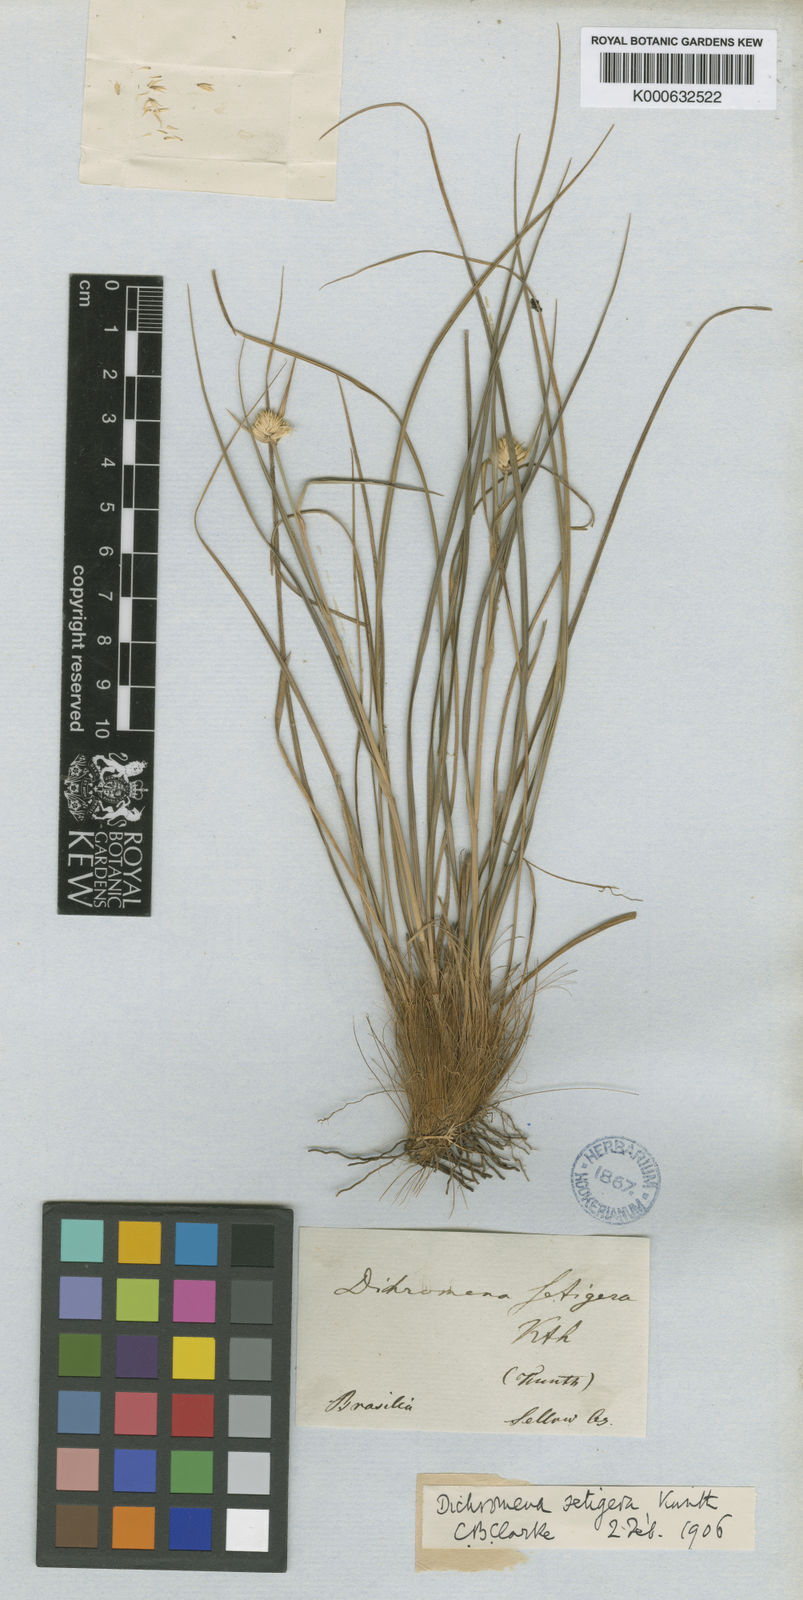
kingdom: Plantae
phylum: Tracheophyta
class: Liliopsida
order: Poales
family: Cyperaceae
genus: Rhynchospora
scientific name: Rhynchospora setigera
